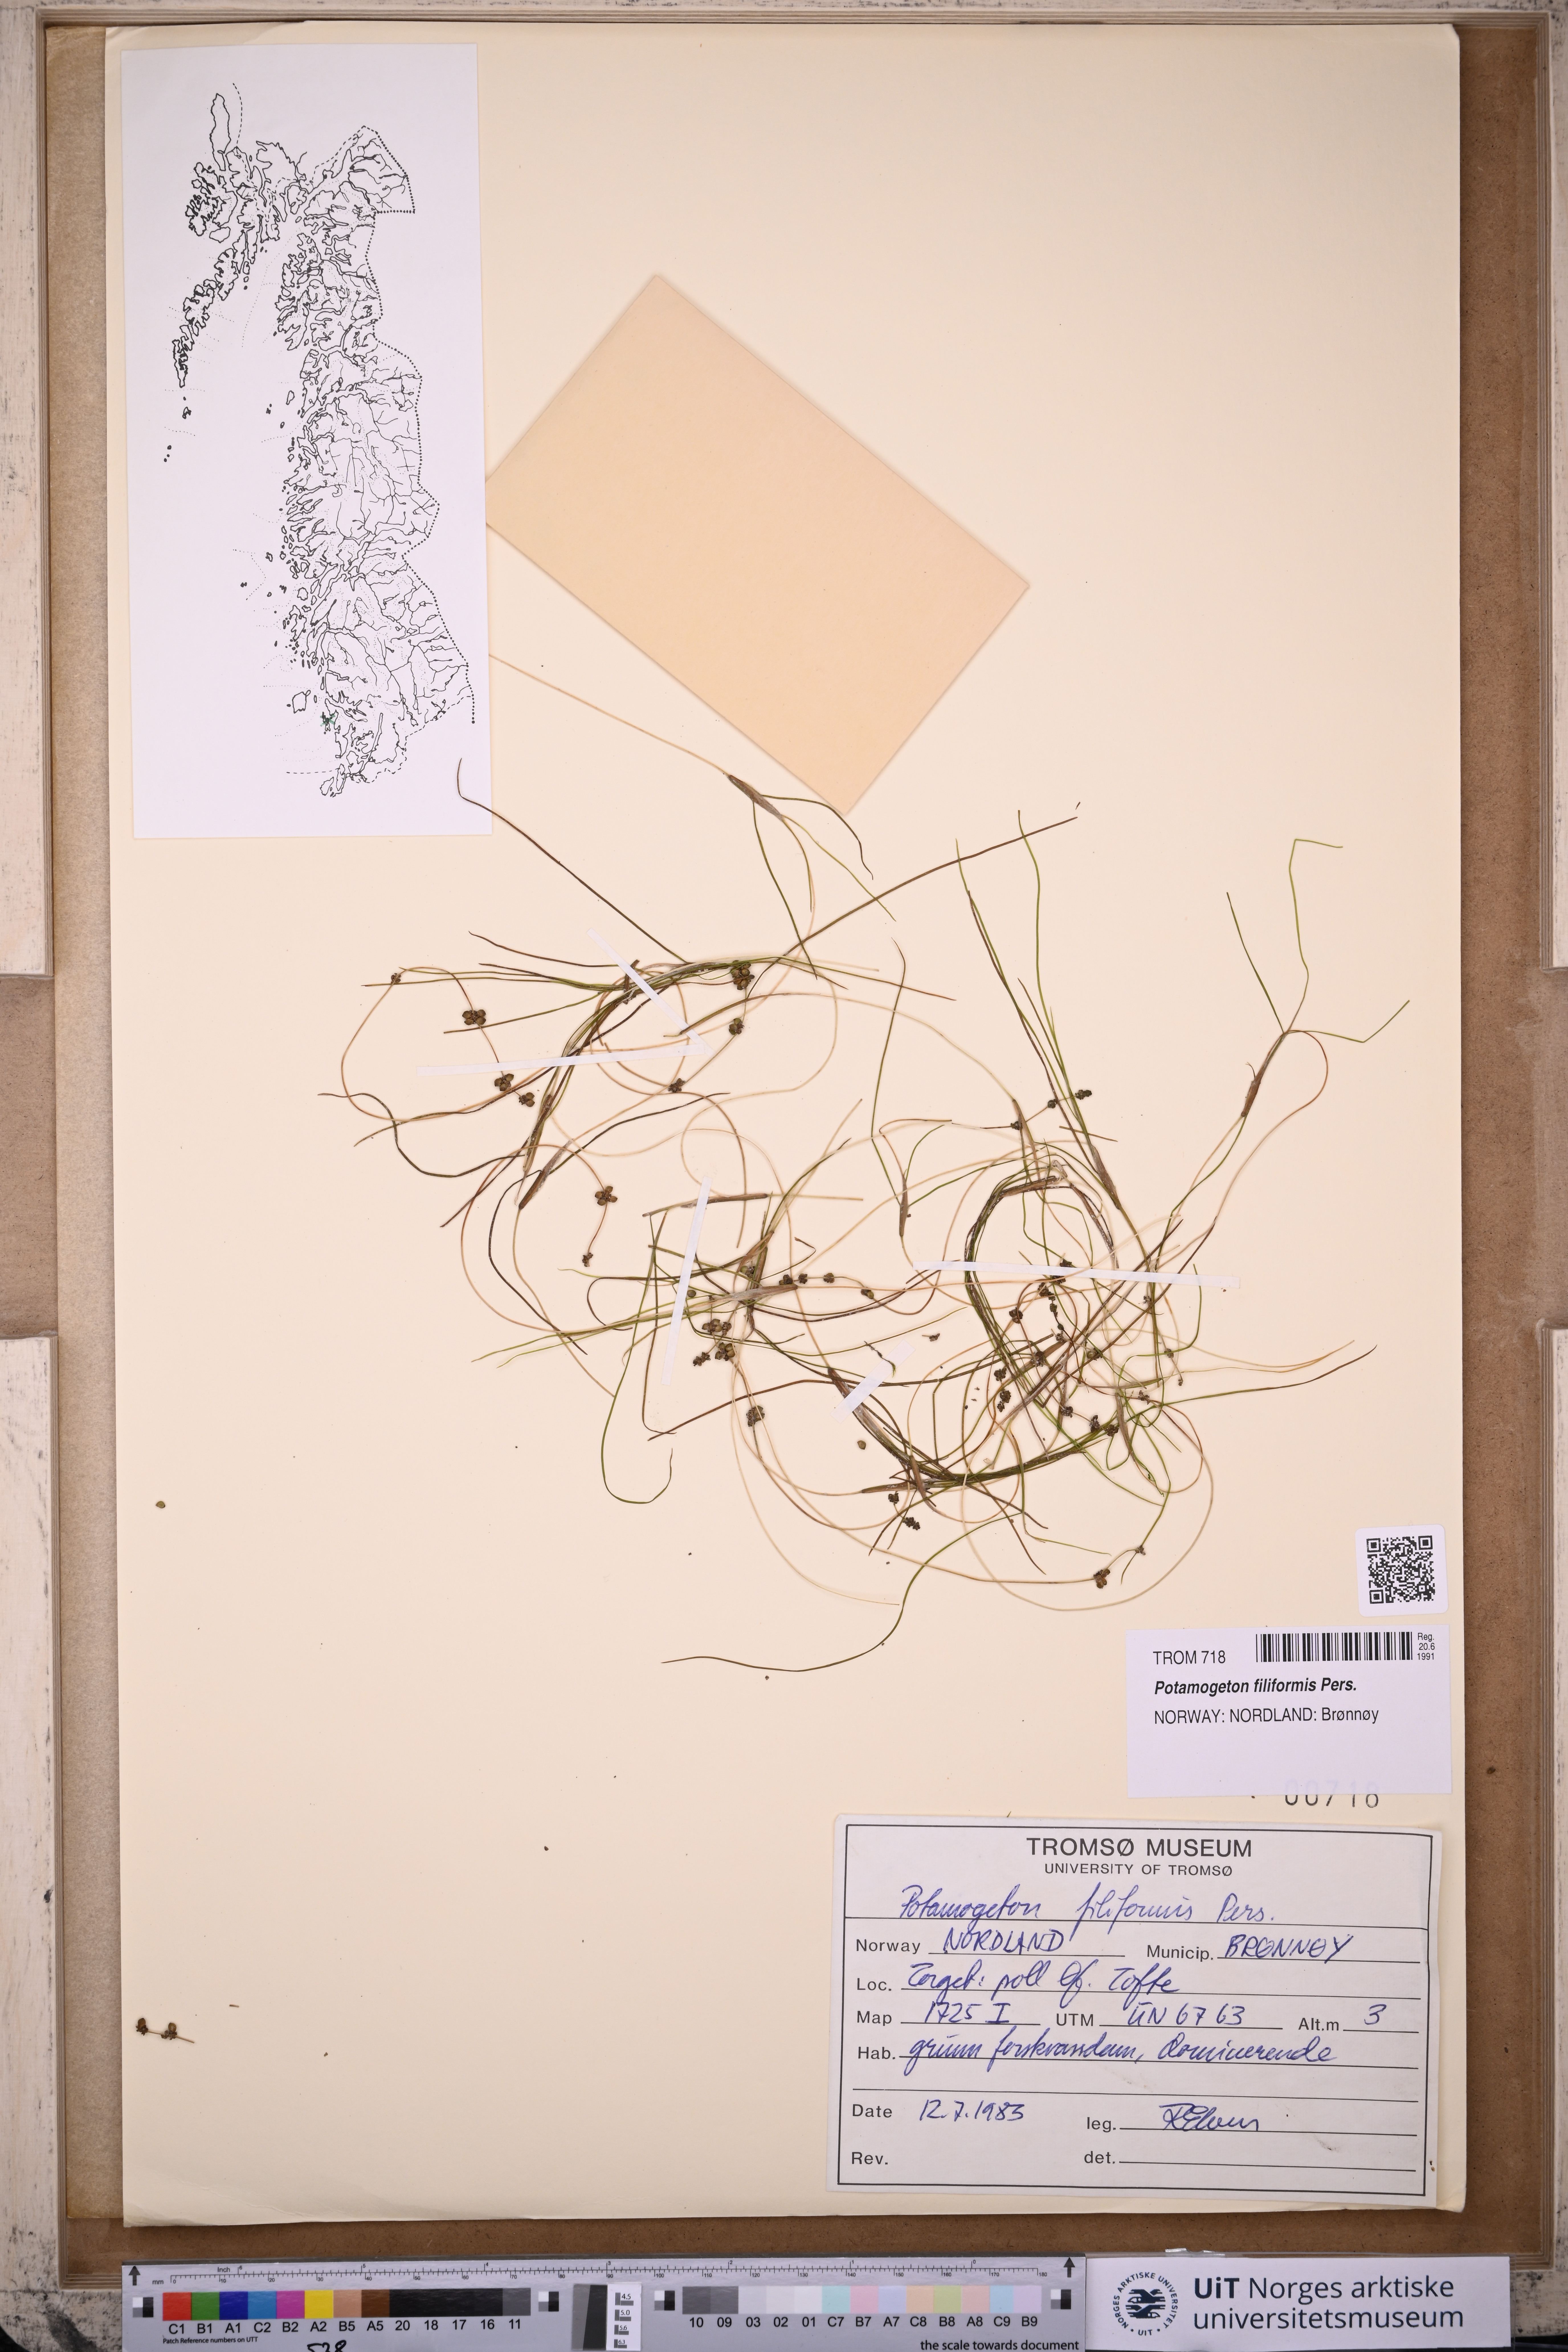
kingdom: Plantae
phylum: Tracheophyta
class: Liliopsida
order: Alismatales
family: Potamogetonaceae
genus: Stuckenia
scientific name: Stuckenia filiformis
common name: Alpine thread-leaved pondweed
